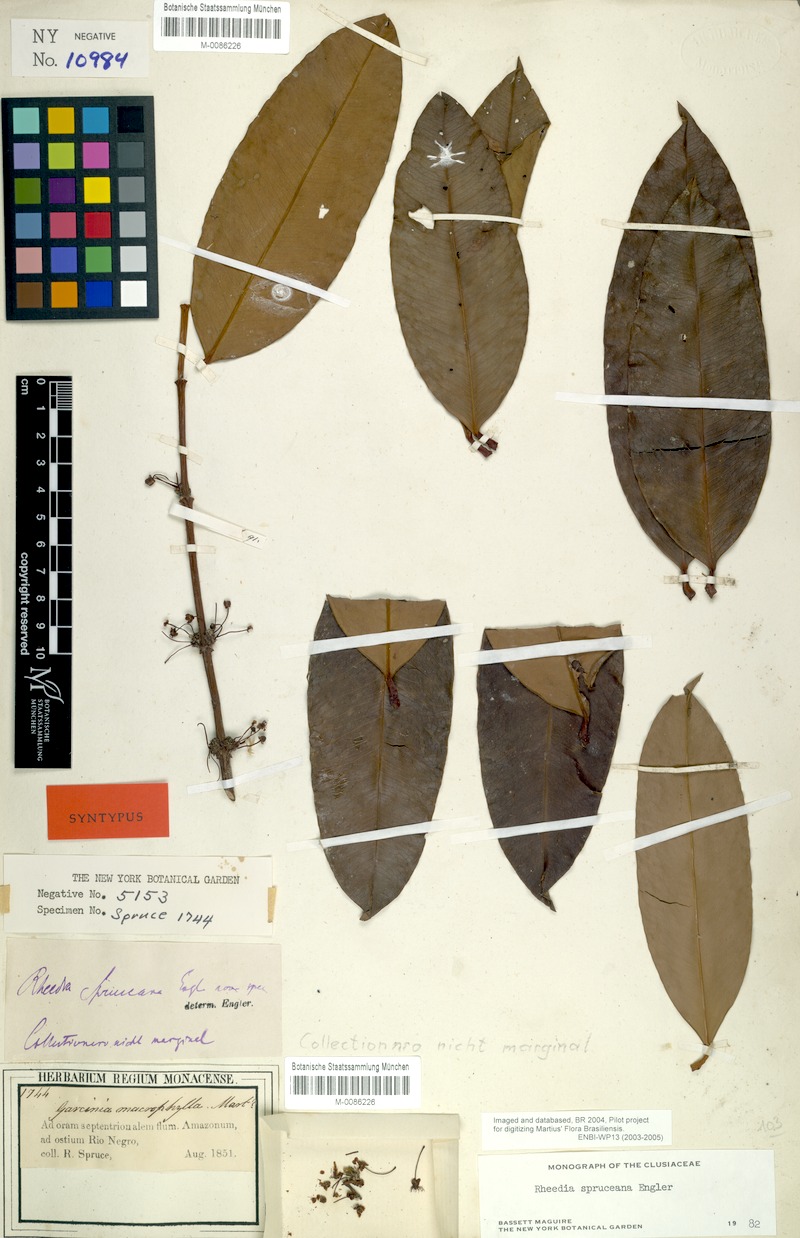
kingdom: Plantae
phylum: Tracheophyta
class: Magnoliopsida
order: Malpighiales
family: Clusiaceae
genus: Garcinia
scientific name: Garcinia brasiliensis
